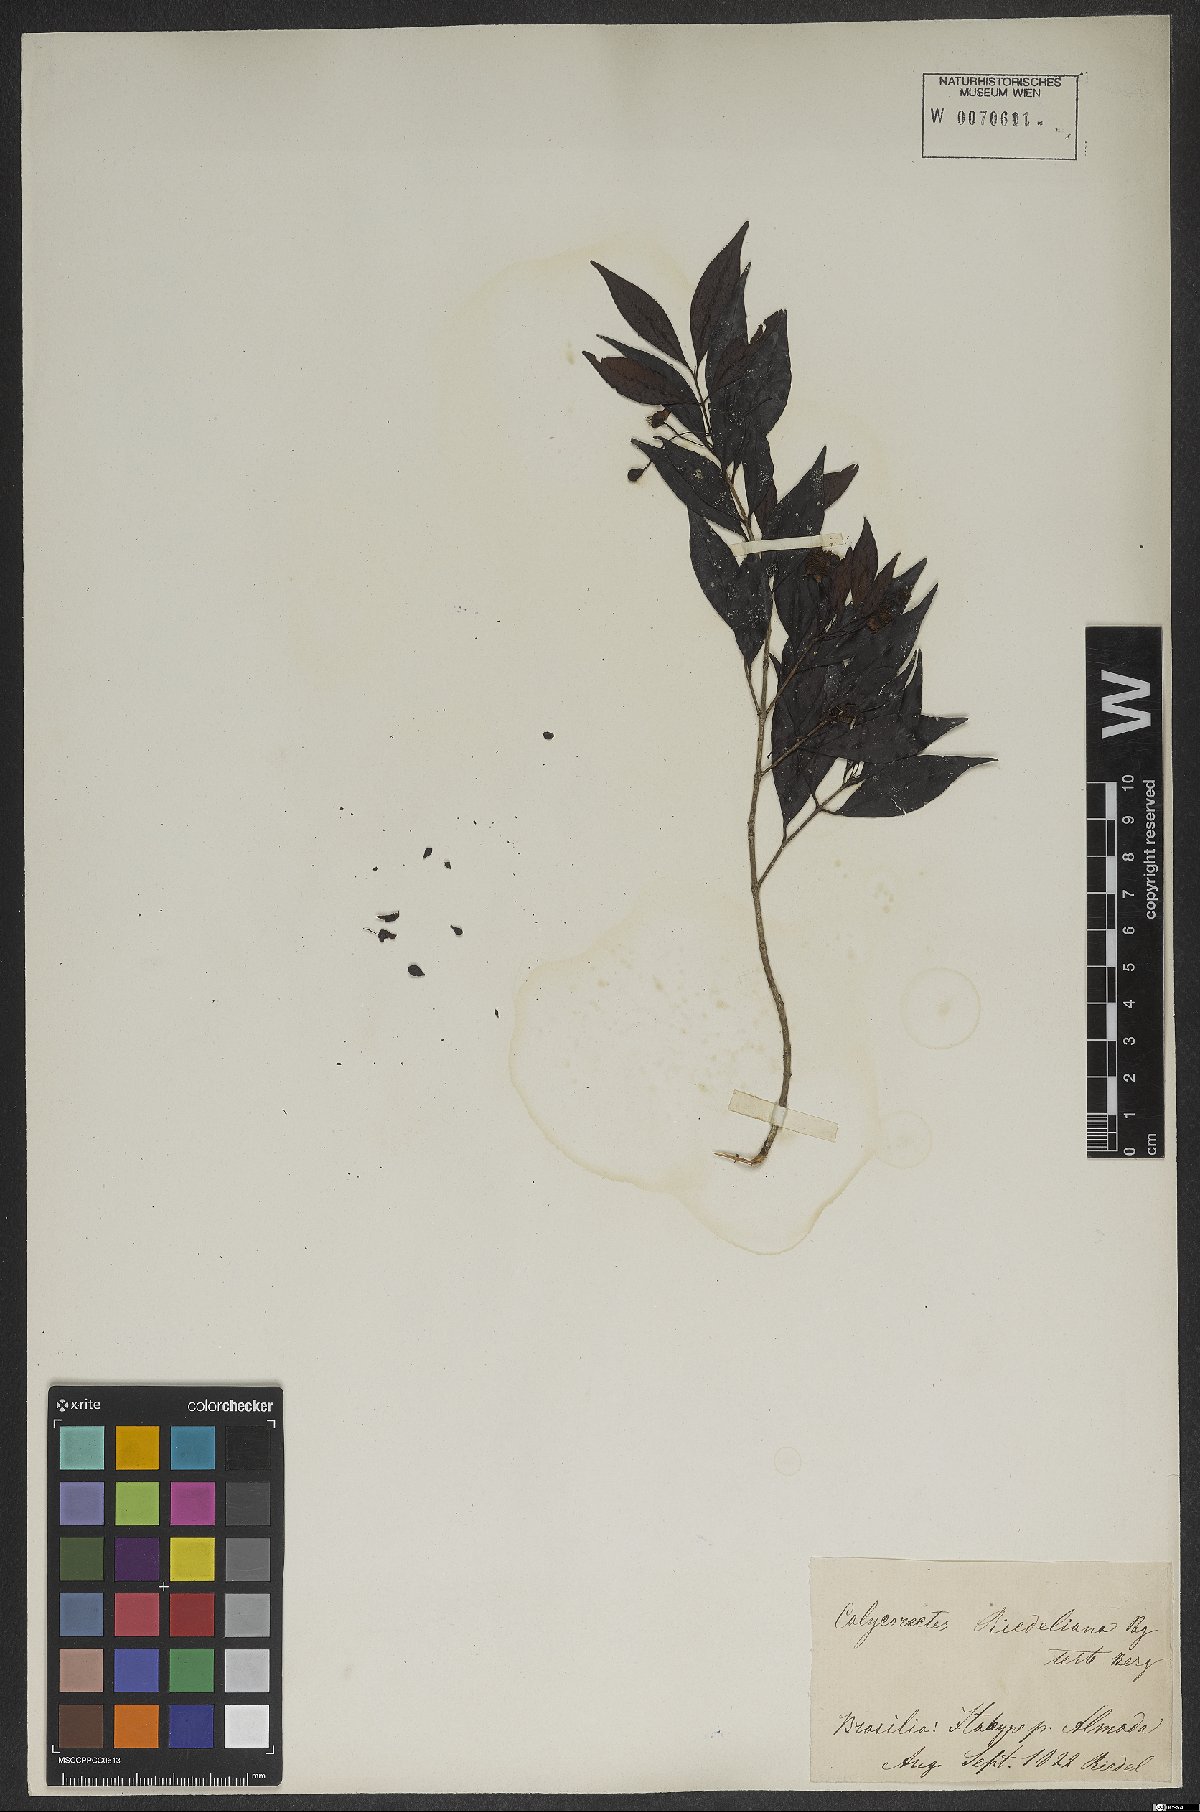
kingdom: Plantae
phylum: Tracheophyta
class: Magnoliopsida
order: Myrtales
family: Myrtaceae
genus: Eugenia
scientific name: Eugenia subterminalis
